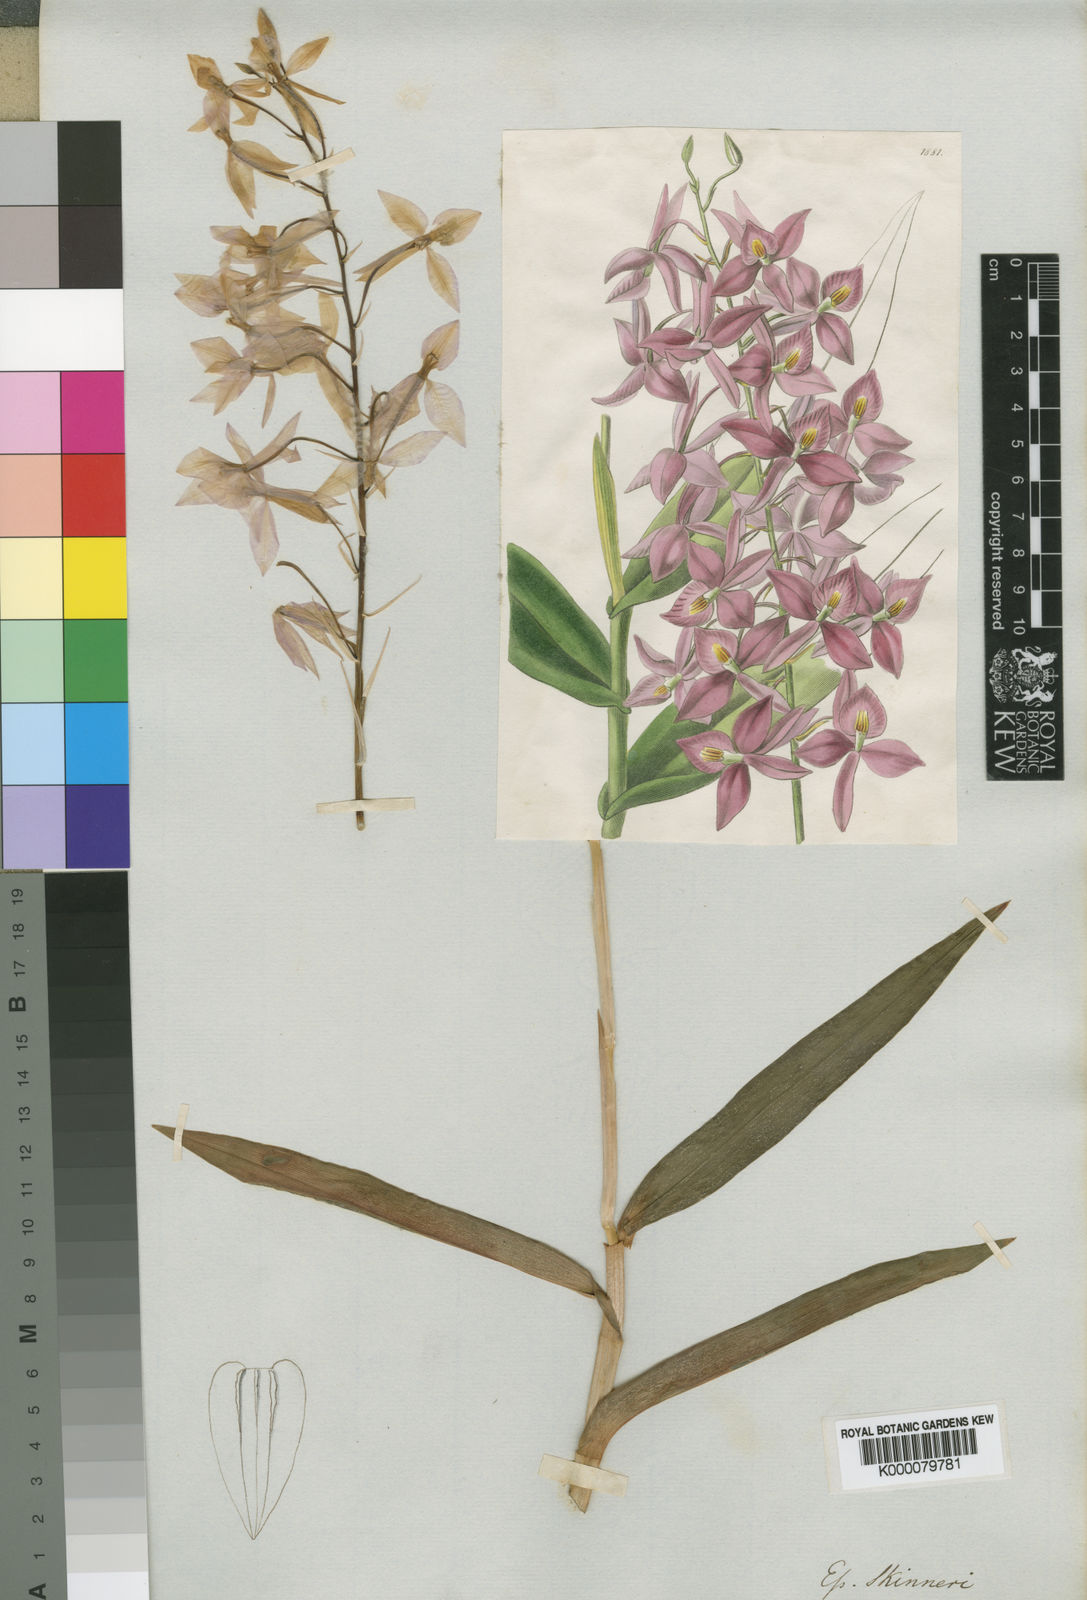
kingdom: Plantae
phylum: Tracheophyta
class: Liliopsida
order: Asparagales
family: Orchidaceae
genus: Barkeria
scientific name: Barkeria skinneri
